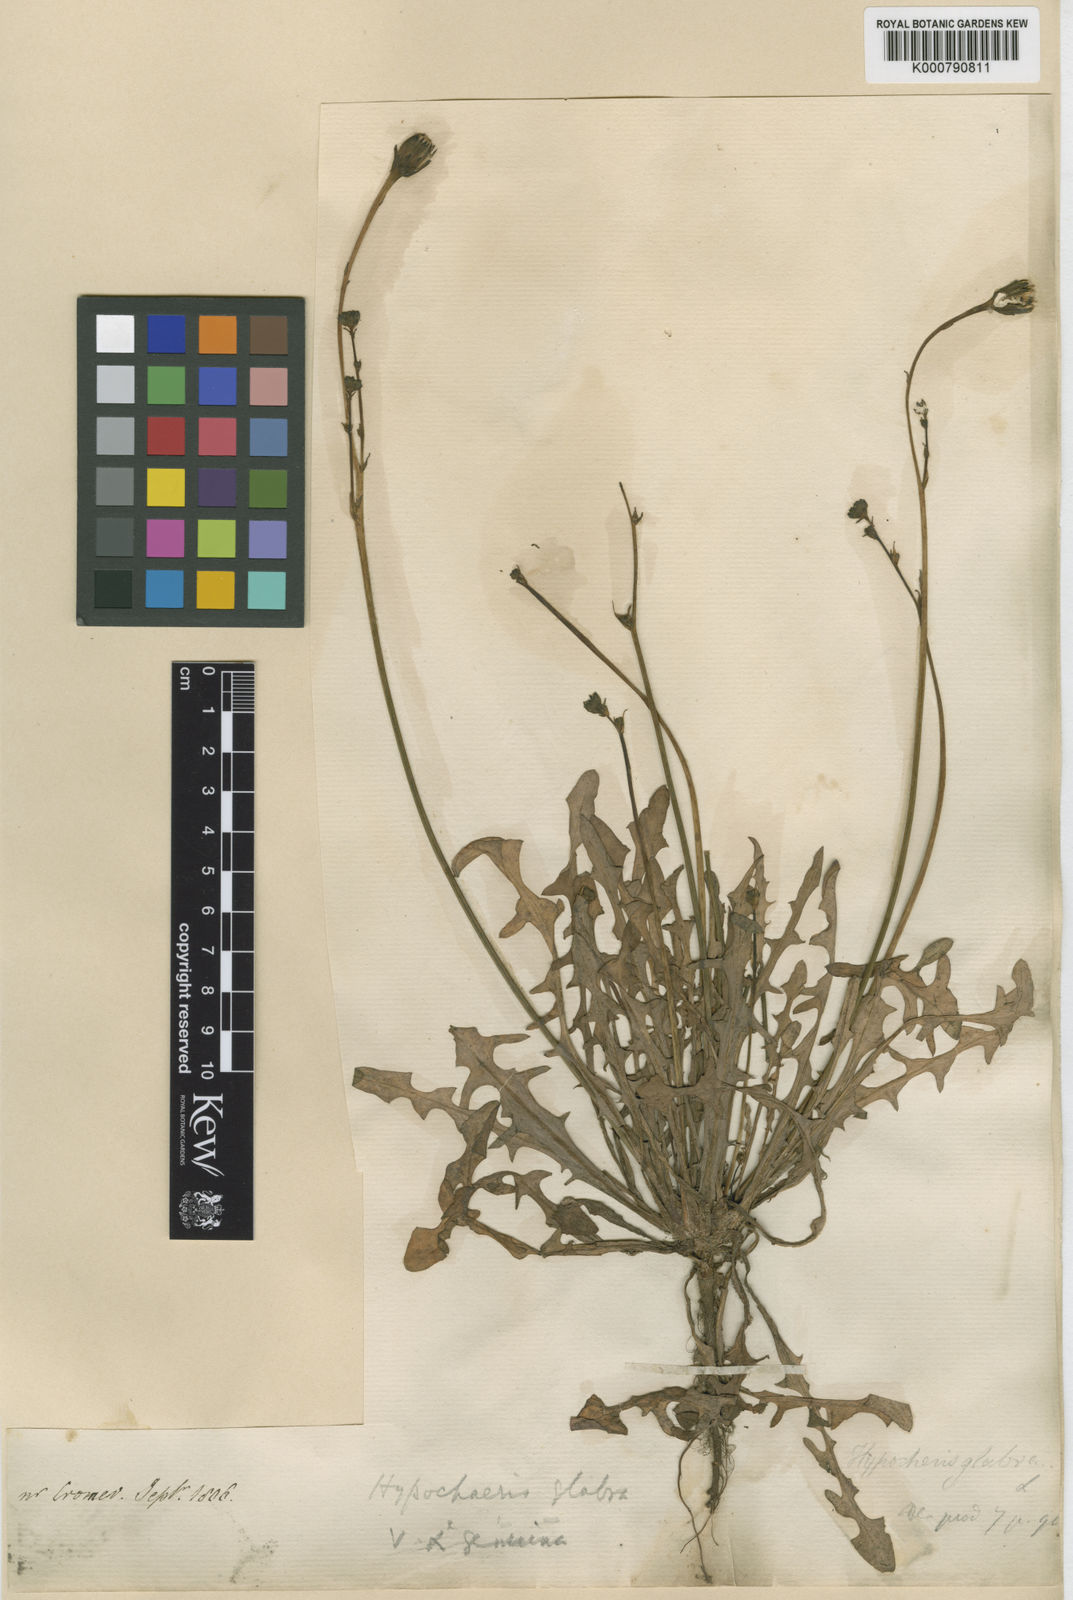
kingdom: Plantae
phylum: Tracheophyta
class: Magnoliopsida
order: Asterales
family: Asteraceae
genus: Hypochaeris
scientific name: Hypochaeris glabra
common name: Smooth catsear
